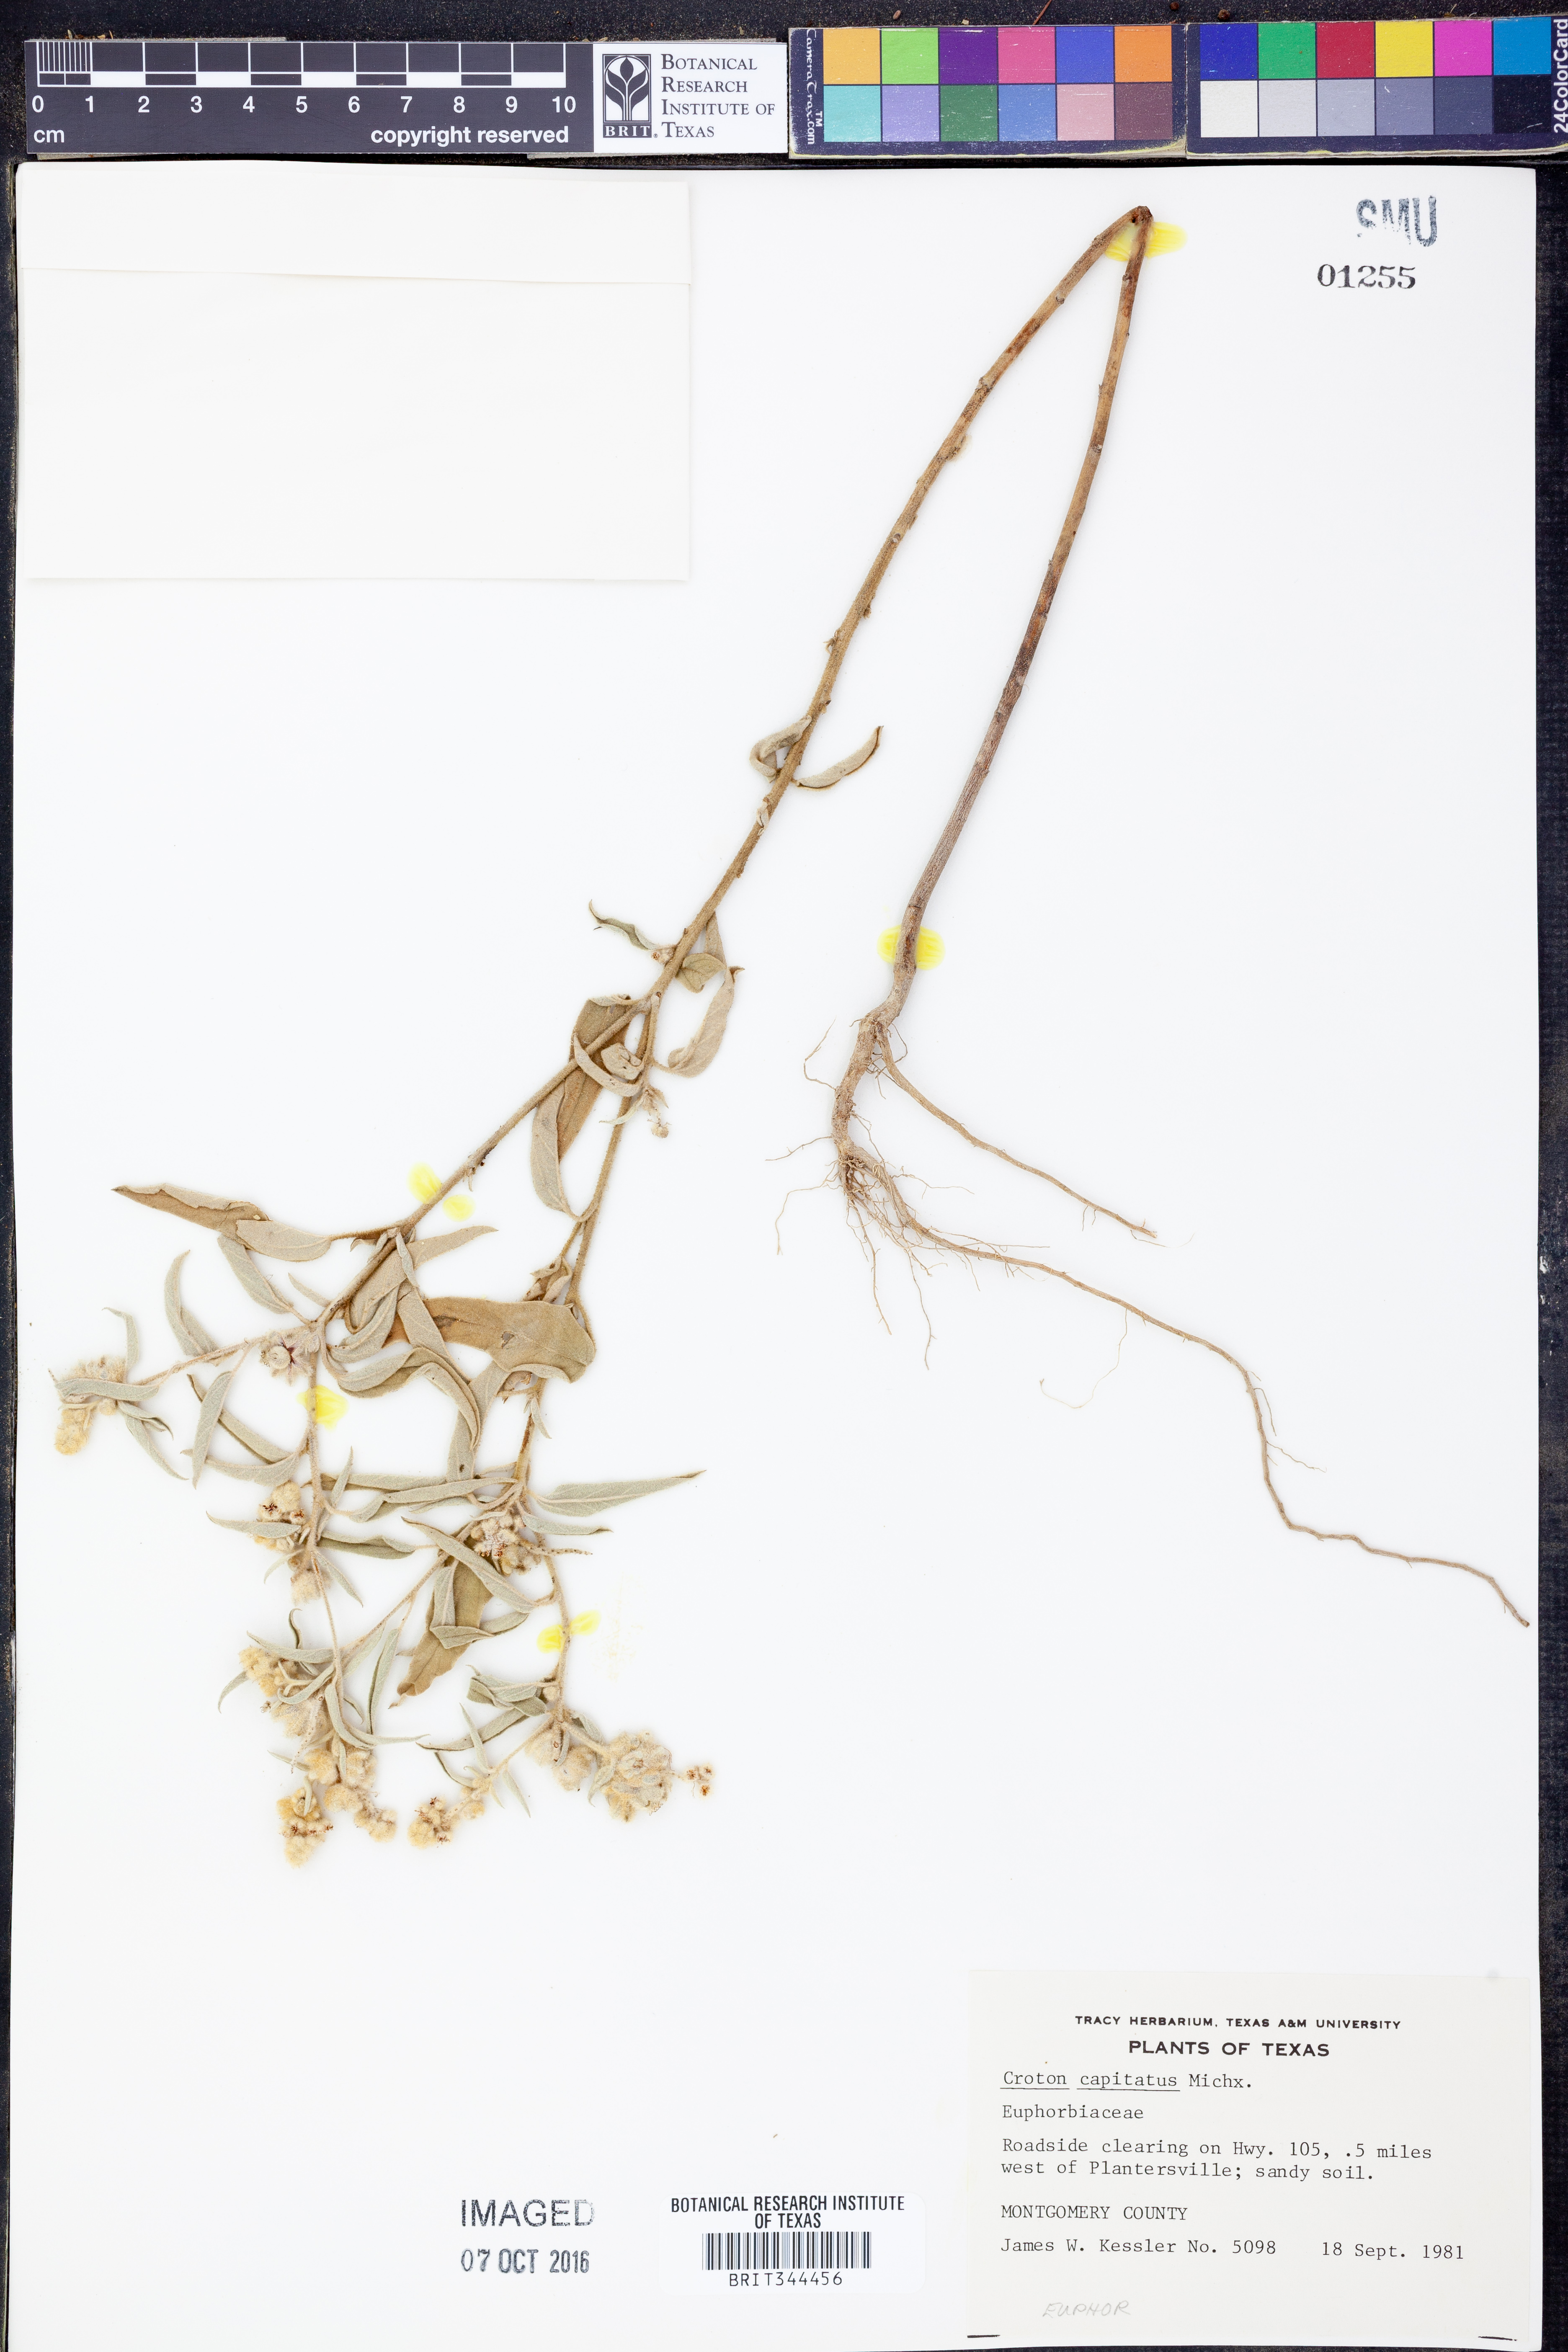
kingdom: Plantae
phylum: Tracheophyta
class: Magnoliopsida
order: Malpighiales
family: Euphorbiaceae
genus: Croton
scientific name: Croton capitatus
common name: Woolly croton
